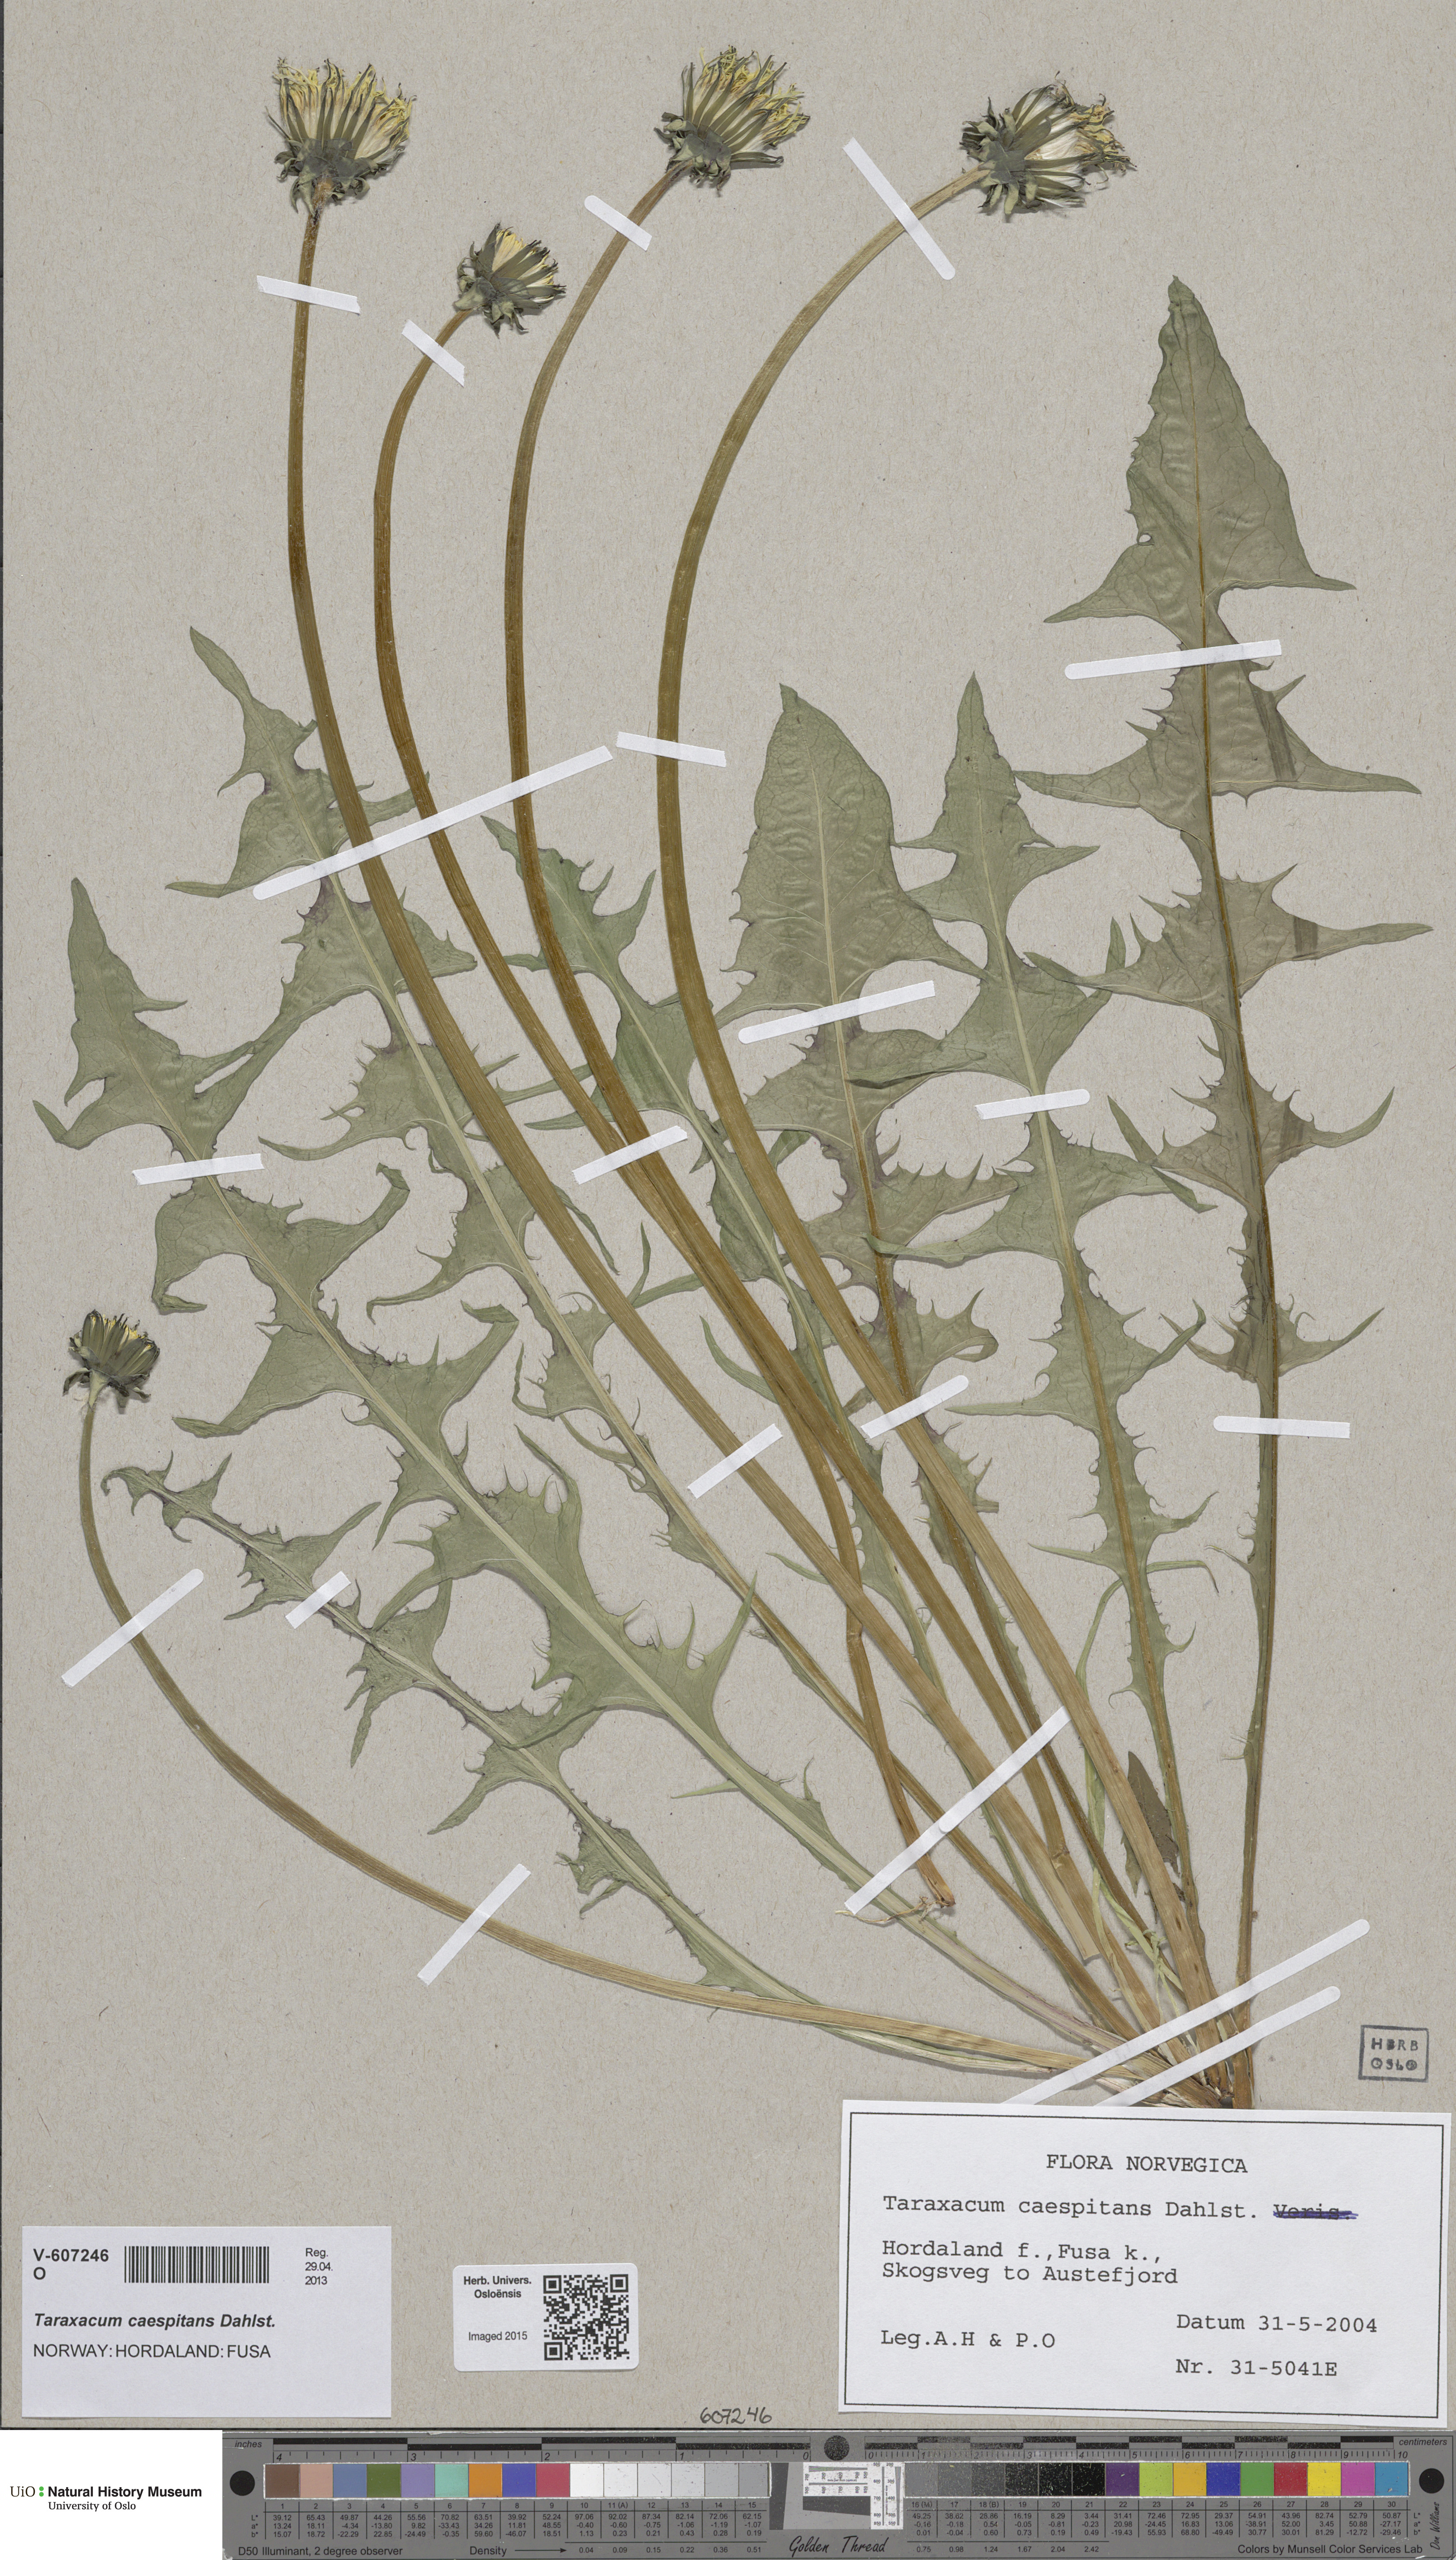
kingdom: Plantae
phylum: Tracheophyta
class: Magnoliopsida
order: Asterales
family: Asteraceae
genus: Taraxacum
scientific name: Taraxacum caespitans
